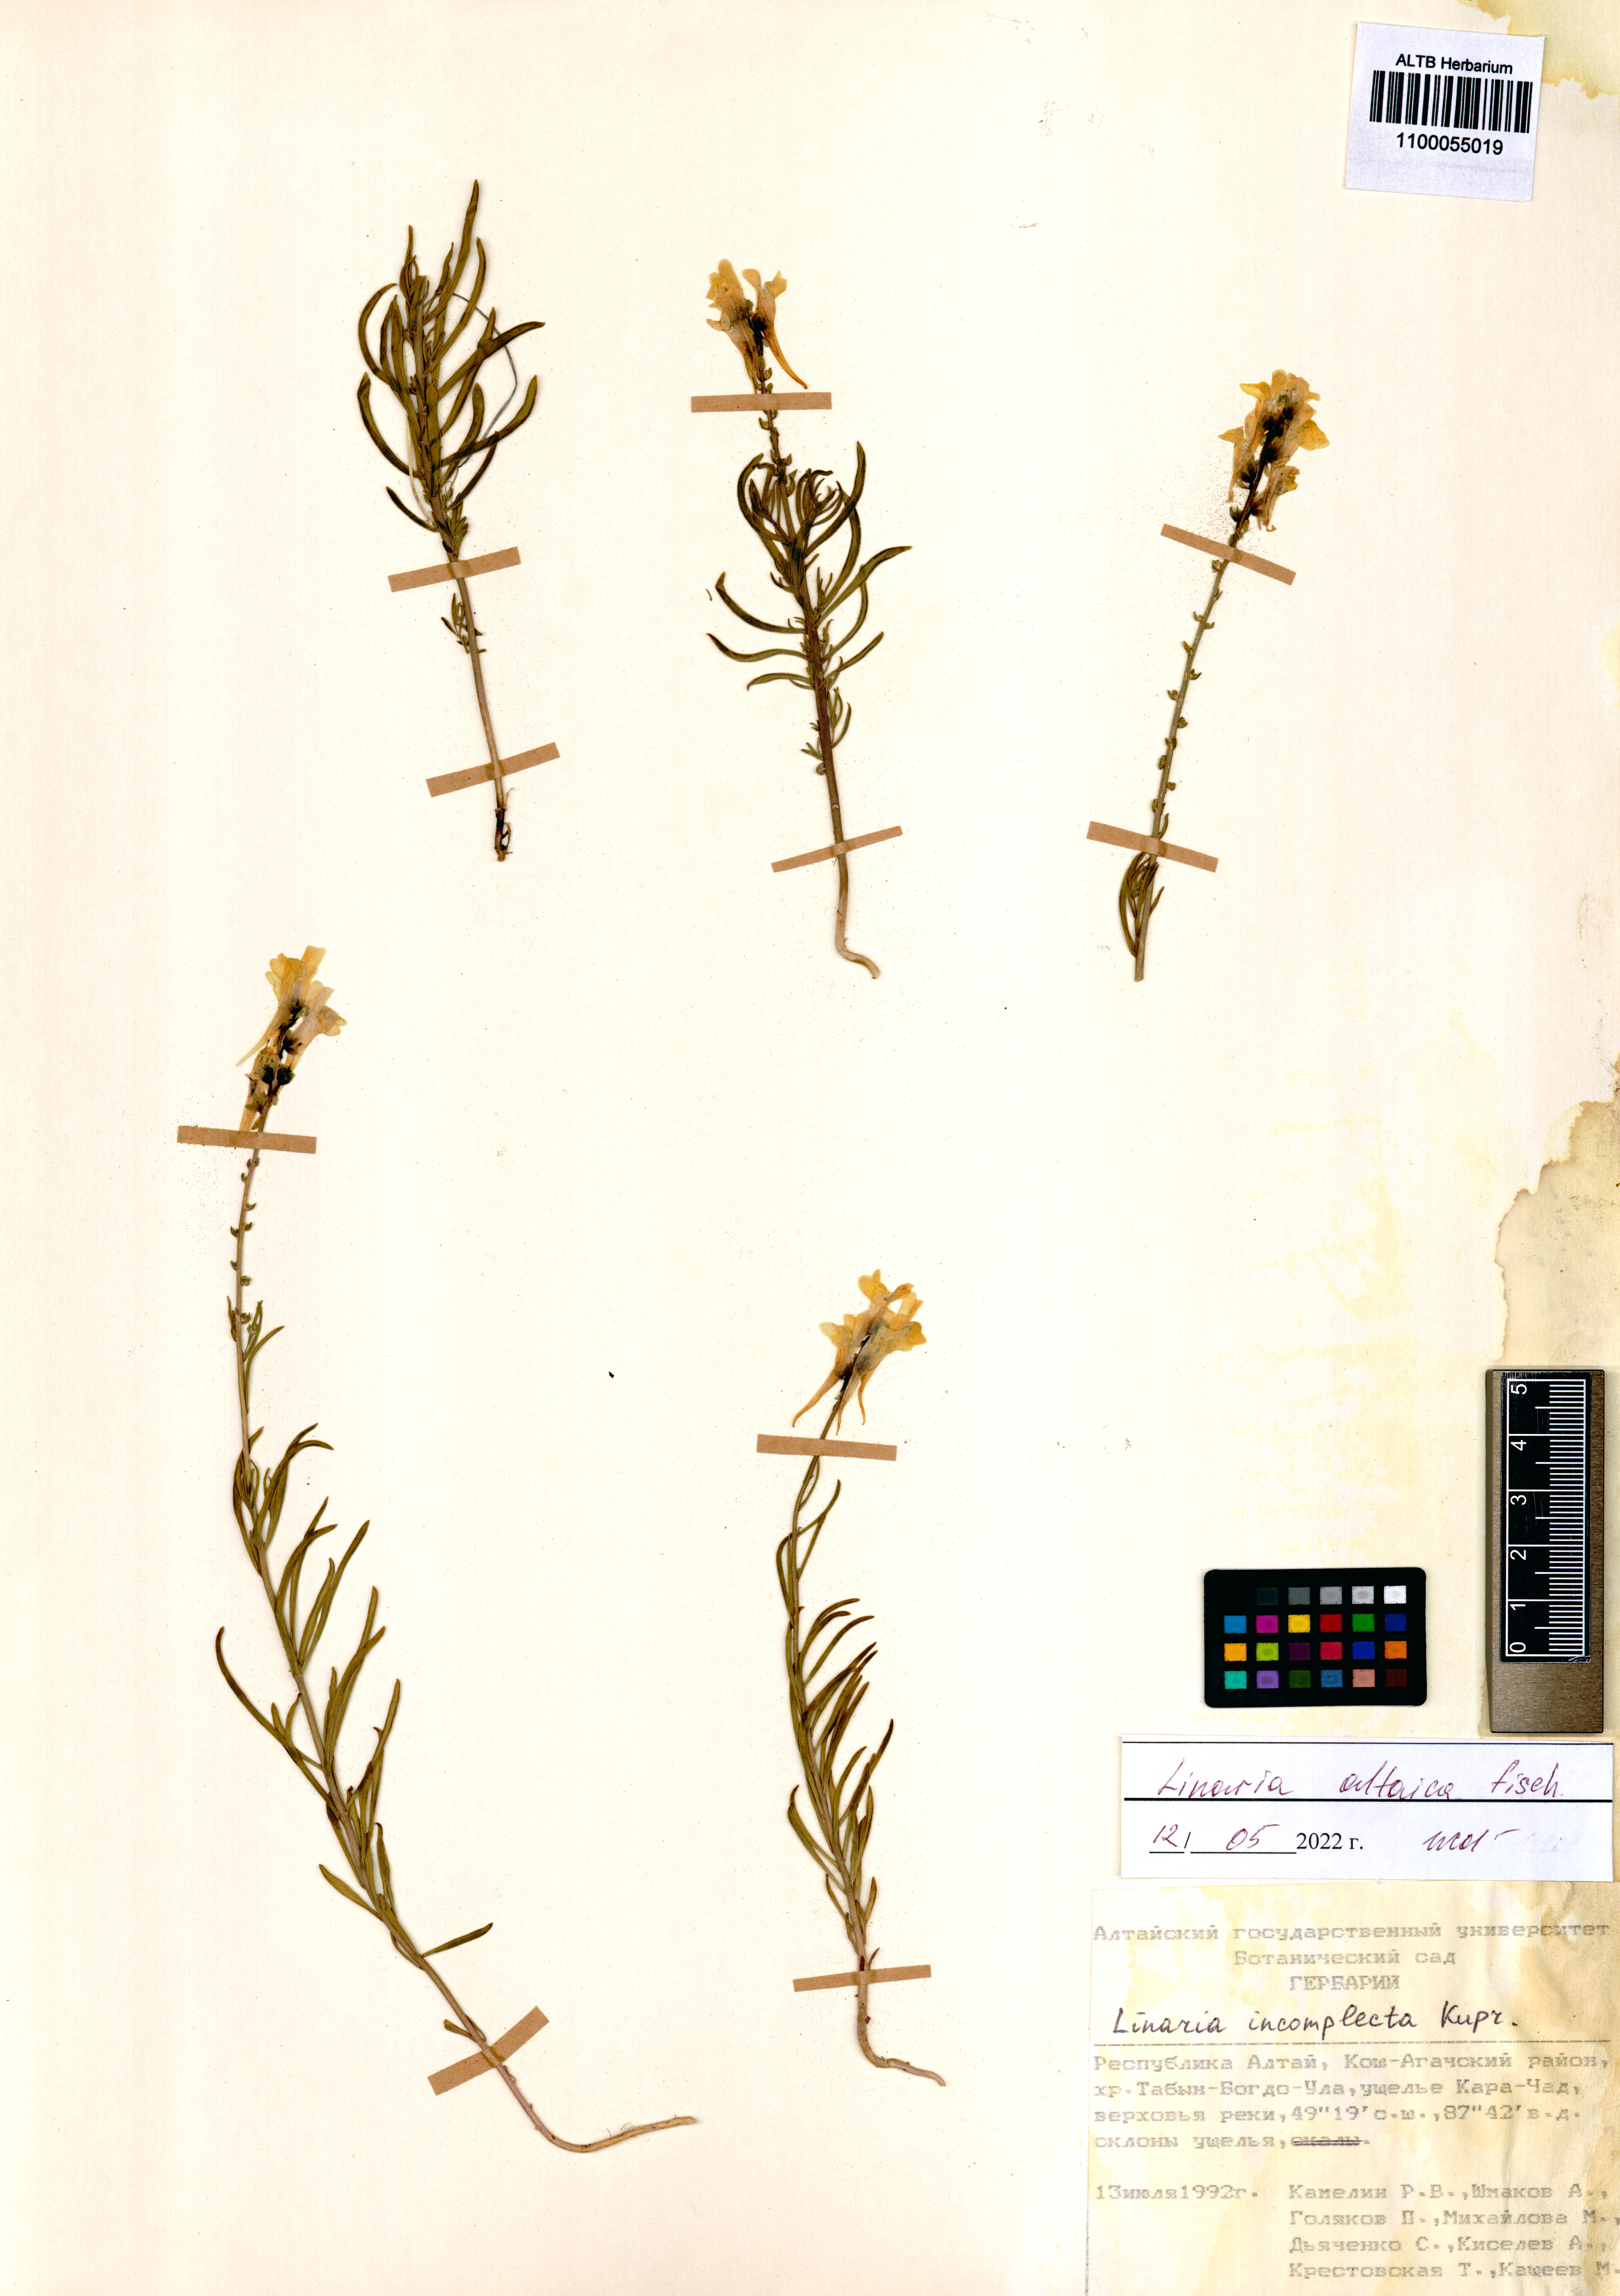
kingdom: Plantae
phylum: Tracheophyta
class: Magnoliopsida
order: Lamiales
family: Plantaginaceae
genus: Linaria
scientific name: Linaria altaica
